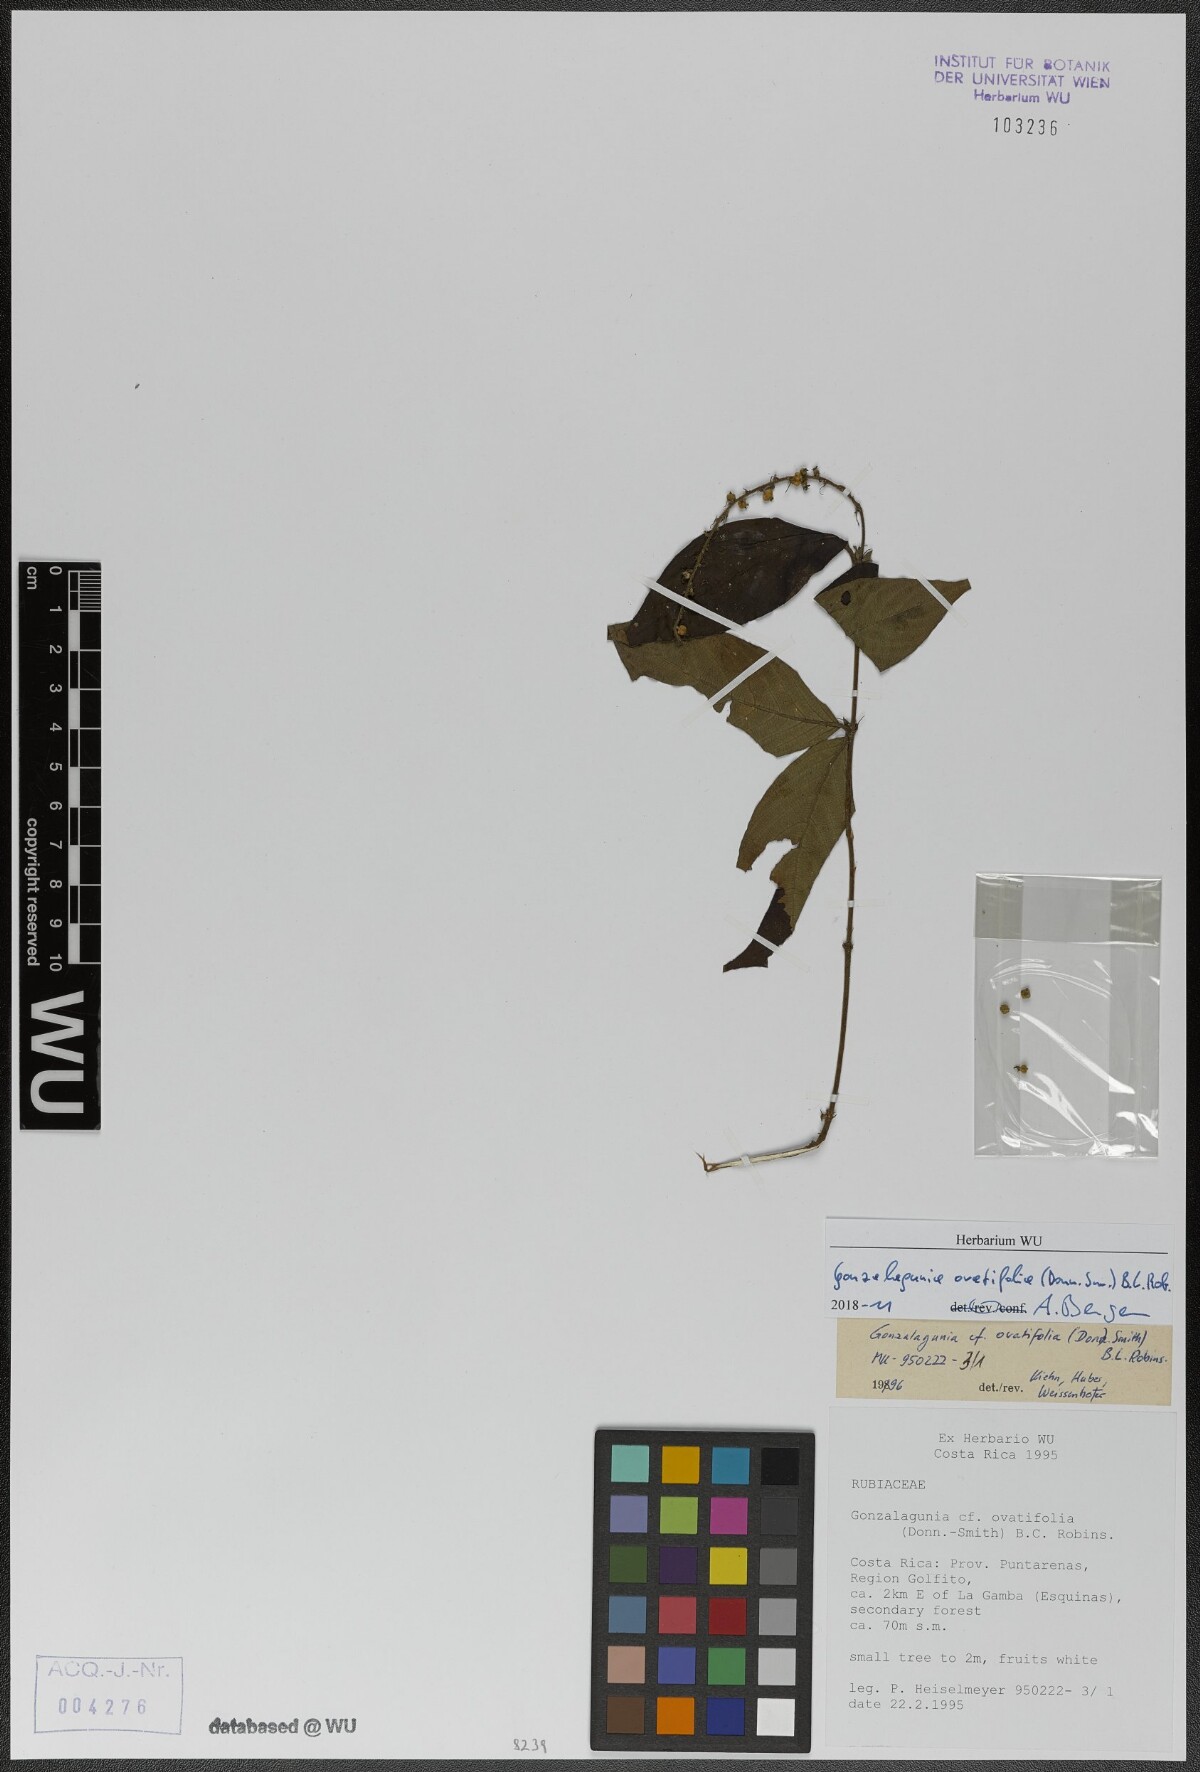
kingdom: Plantae
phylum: Tracheophyta
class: Magnoliopsida
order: Gentianales
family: Rubiaceae
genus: Gonzalagunia
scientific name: Gonzalagunia ovatifolia
